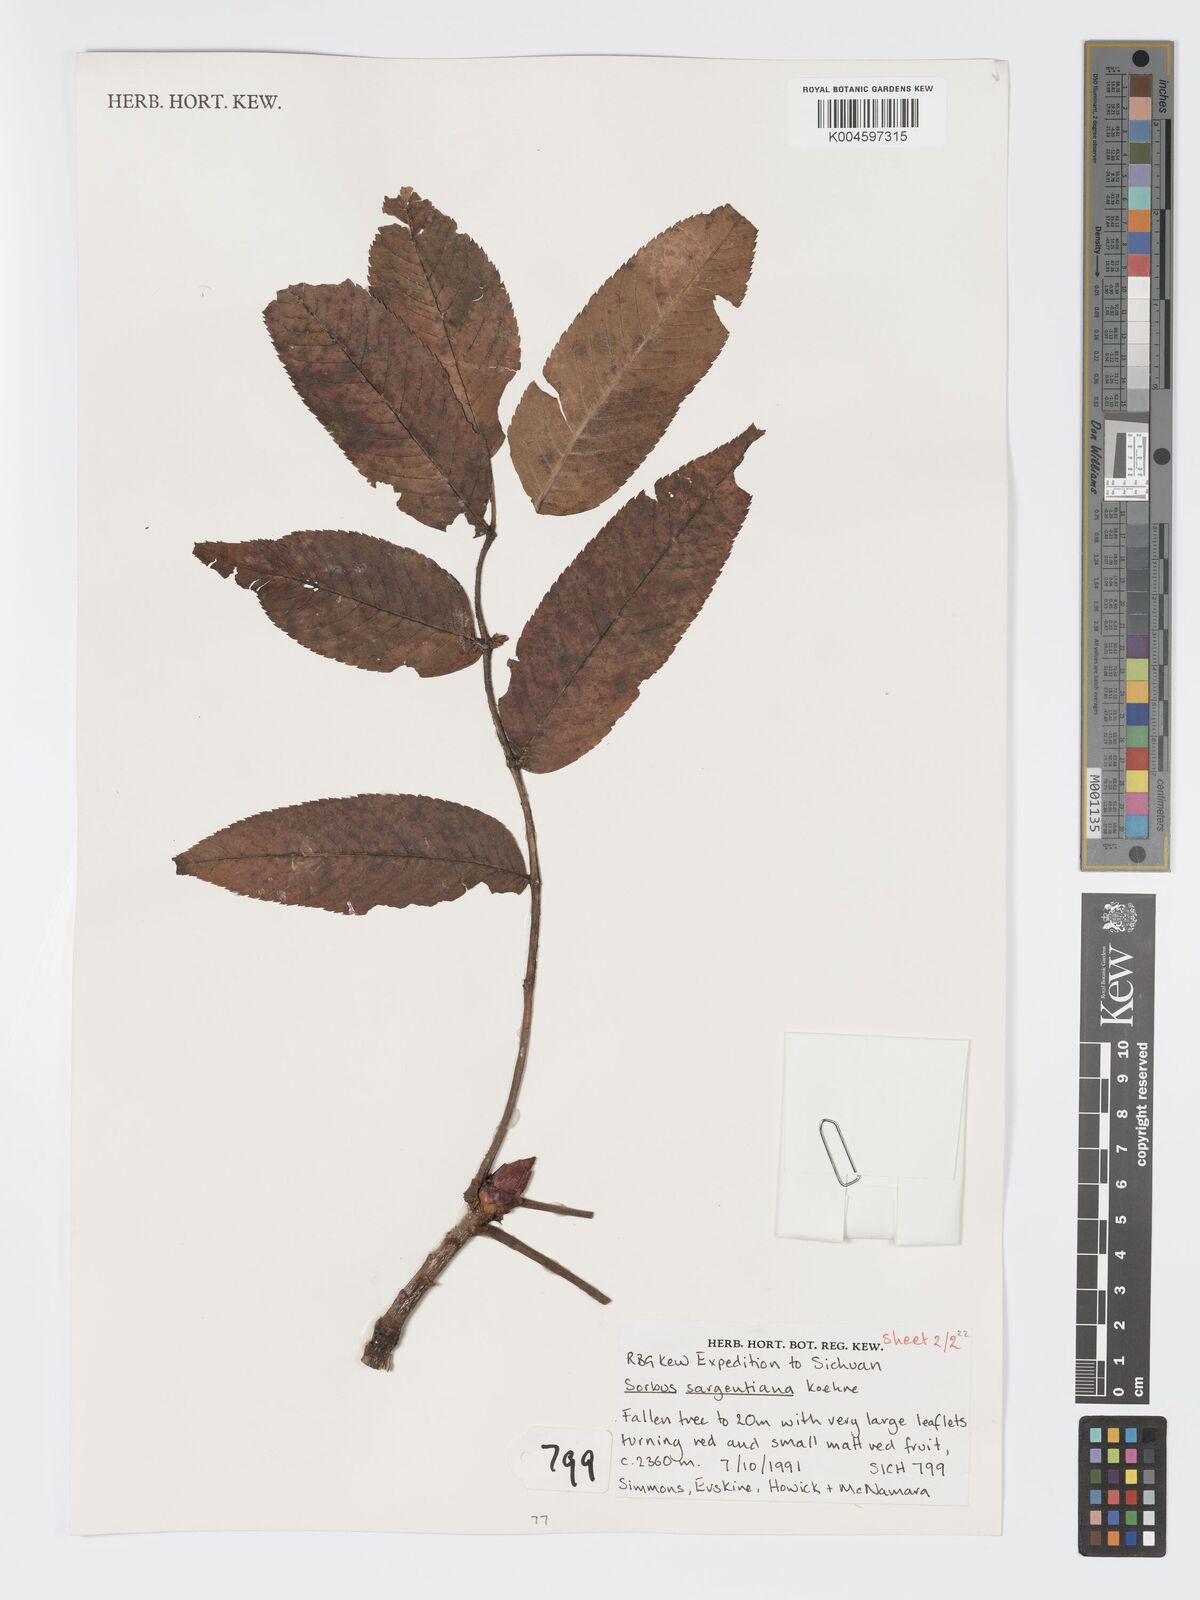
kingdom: Plantae
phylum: Tracheophyta
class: Magnoliopsida
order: Rosales
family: Rosaceae
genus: Sorbus
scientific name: Sorbus sargentiana
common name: Sargent's rowan
